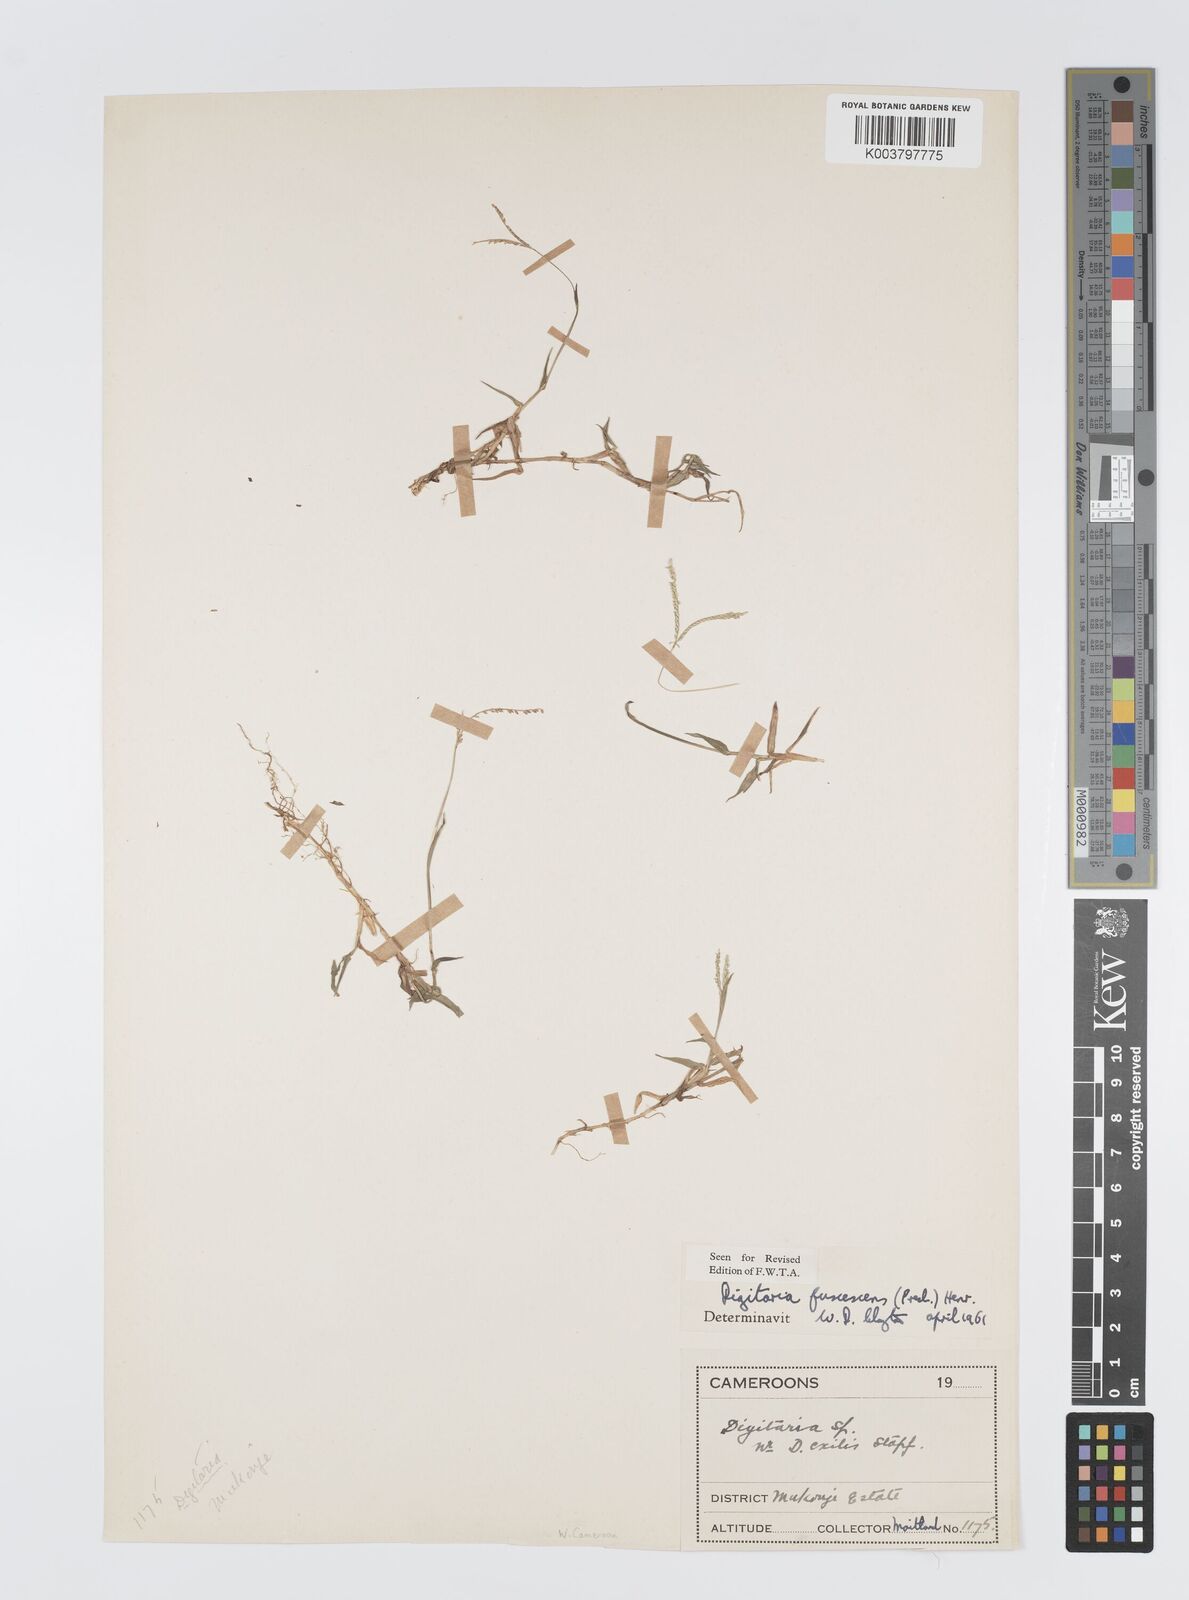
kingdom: Plantae
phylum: Tracheophyta
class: Liliopsida
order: Poales
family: Poaceae
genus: Digitaria
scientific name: Digitaria fuscescens
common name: Yellow crabgrass
